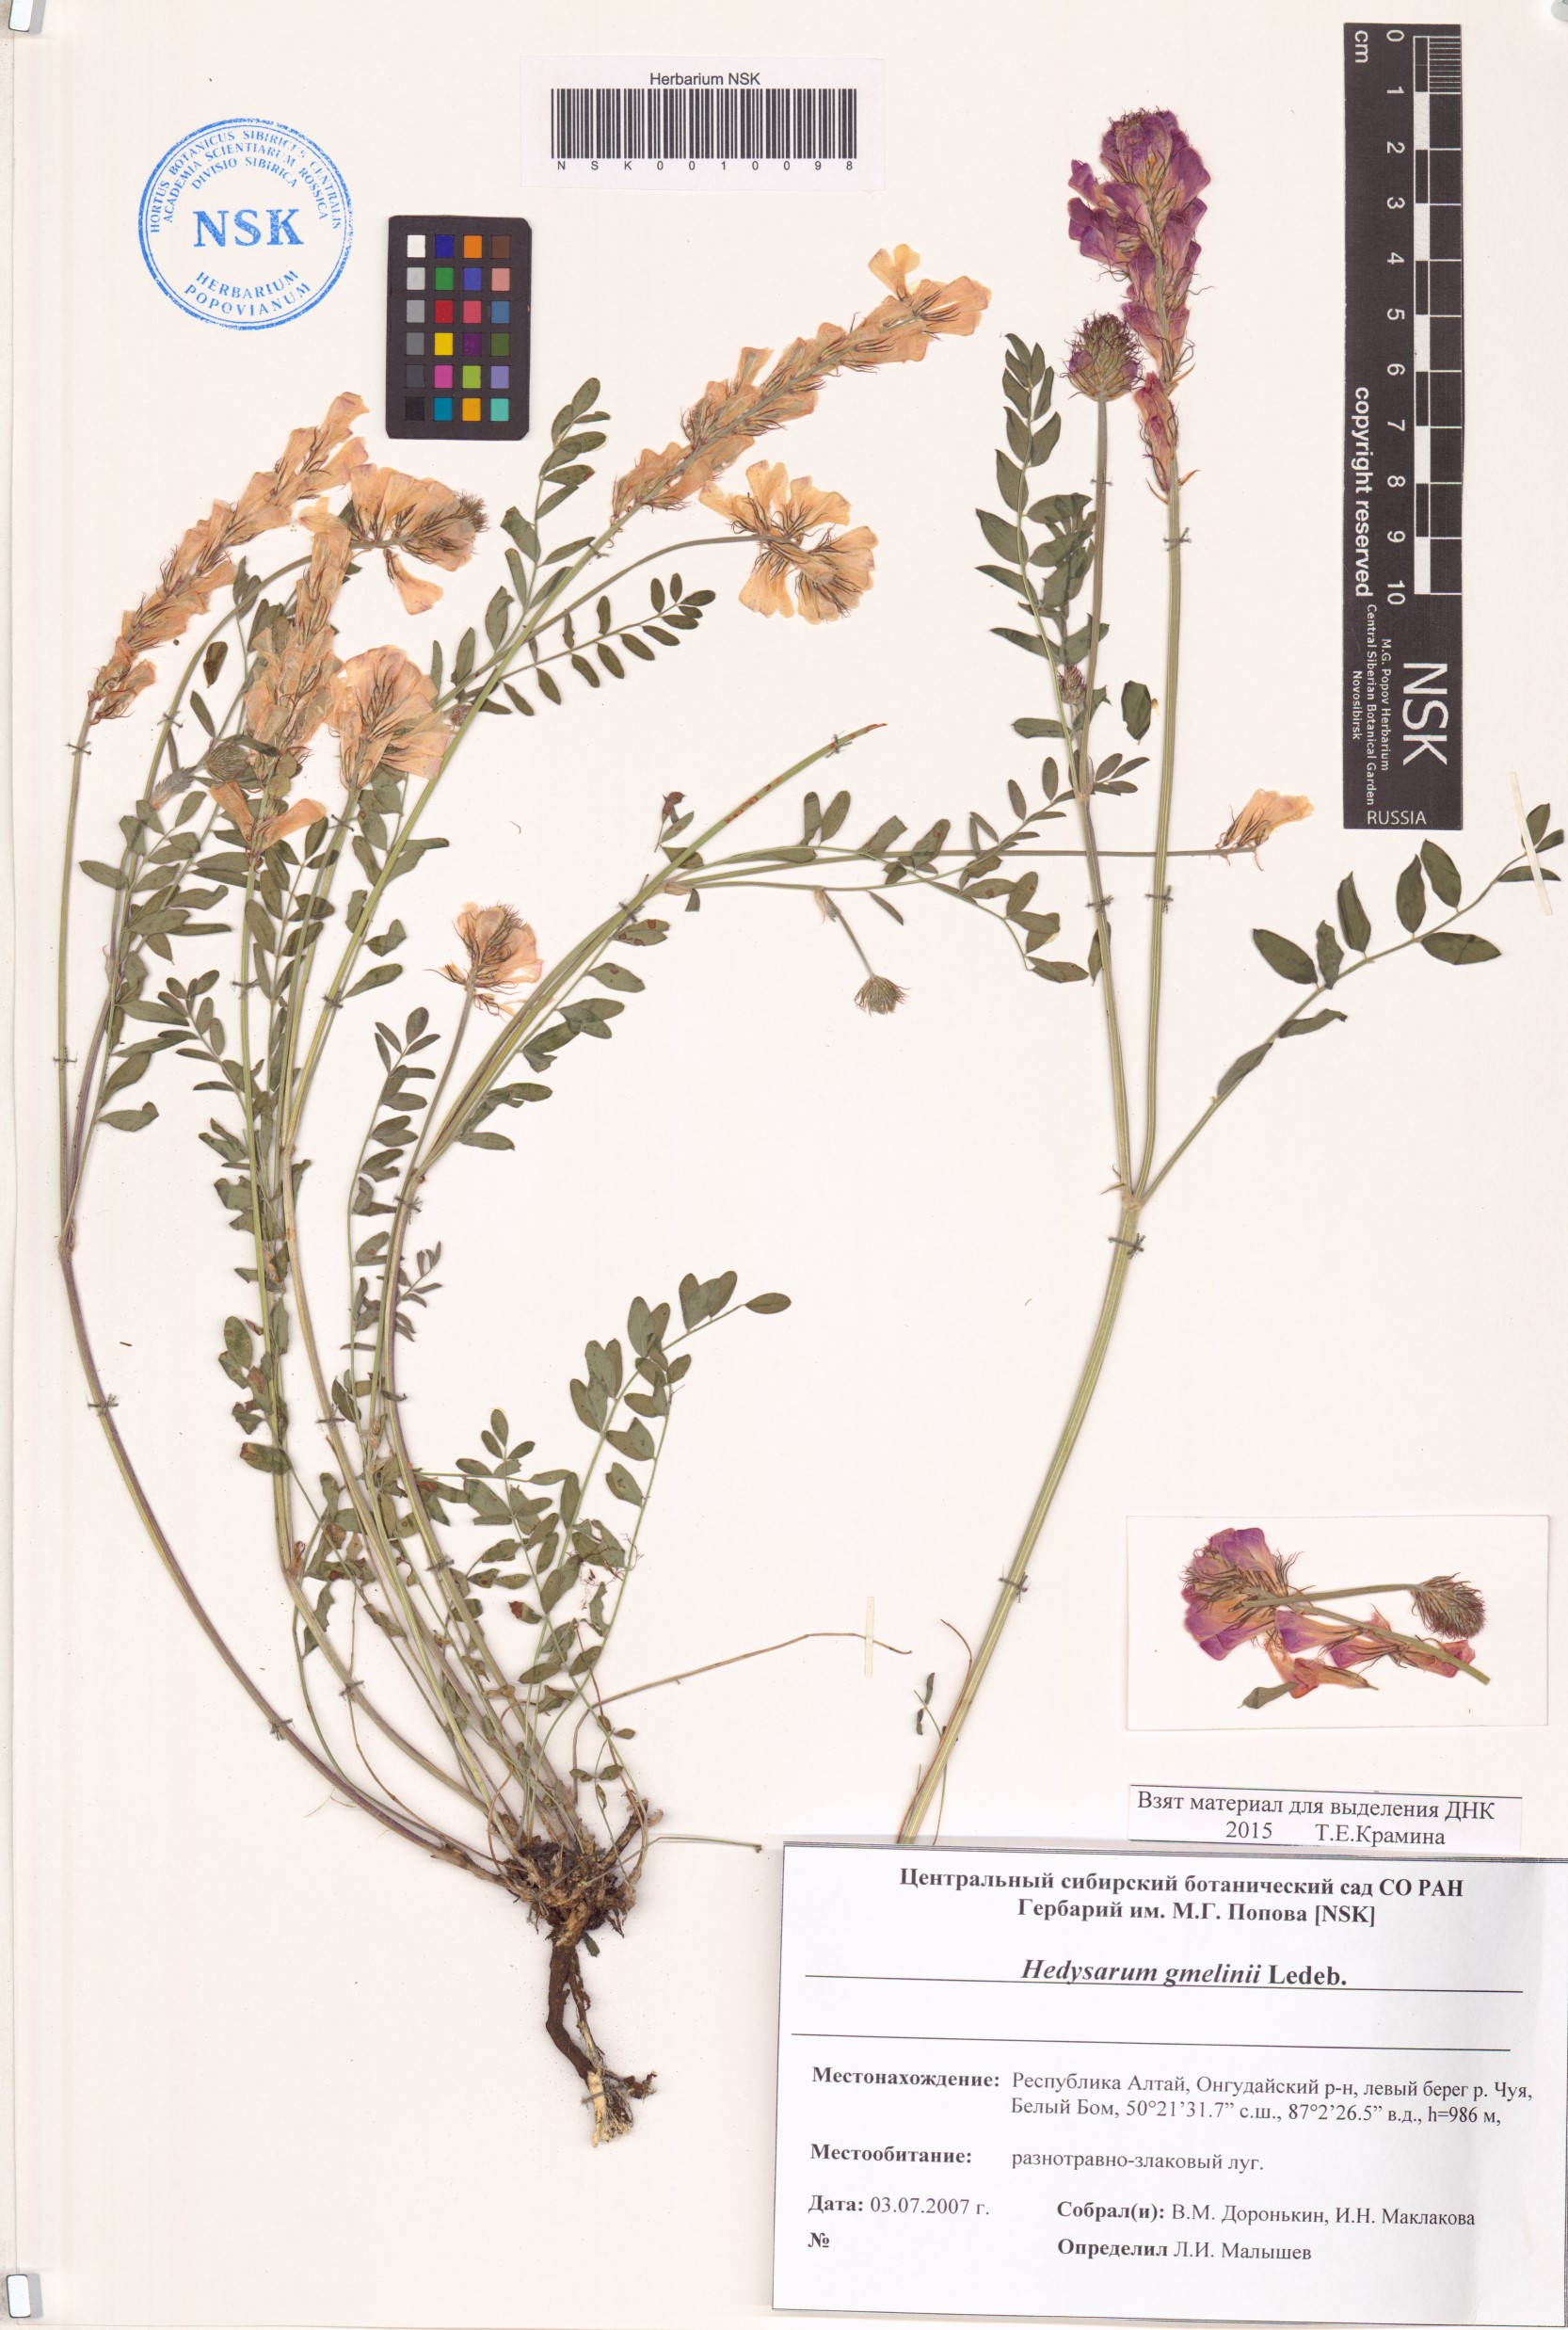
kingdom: Plantae
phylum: Tracheophyta
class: Magnoliopsida
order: Fabales
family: Fabaceae
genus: Hedysarum
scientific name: Hedysarum gmelinii
